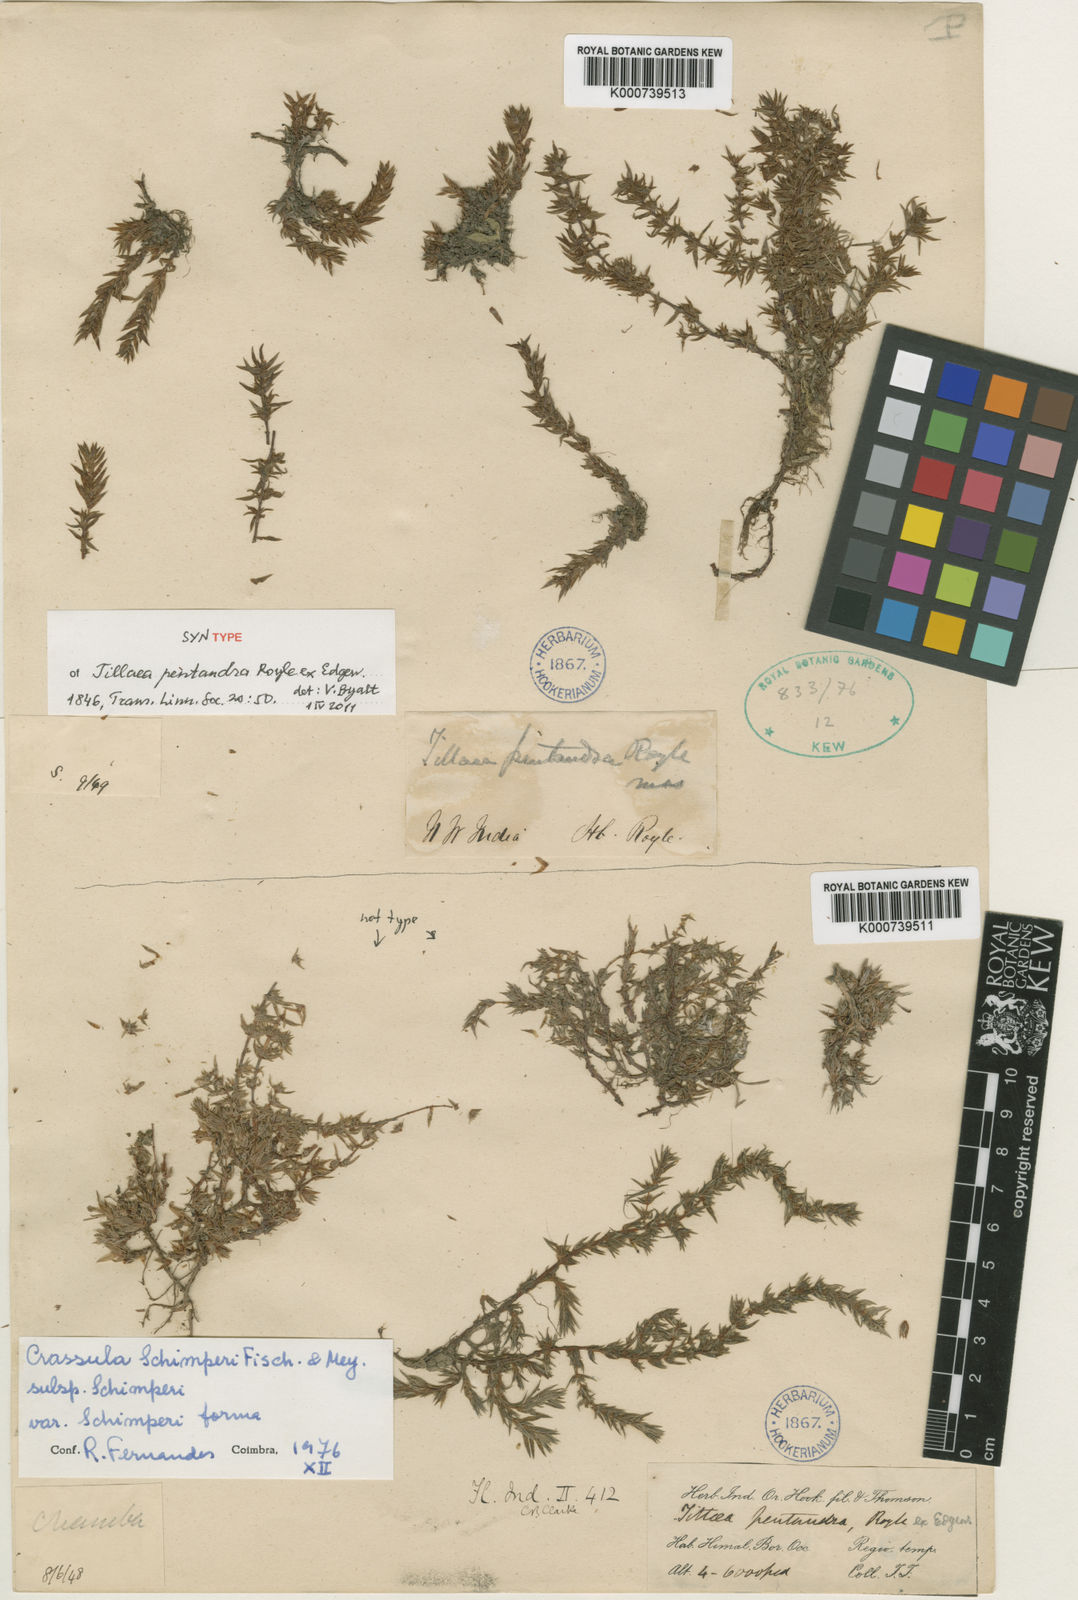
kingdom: Plantae
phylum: Tracheophyta
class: Magnoliopsida
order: Saxifragales
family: Crassulaceae
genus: Crassula
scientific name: Crassula schimperi
